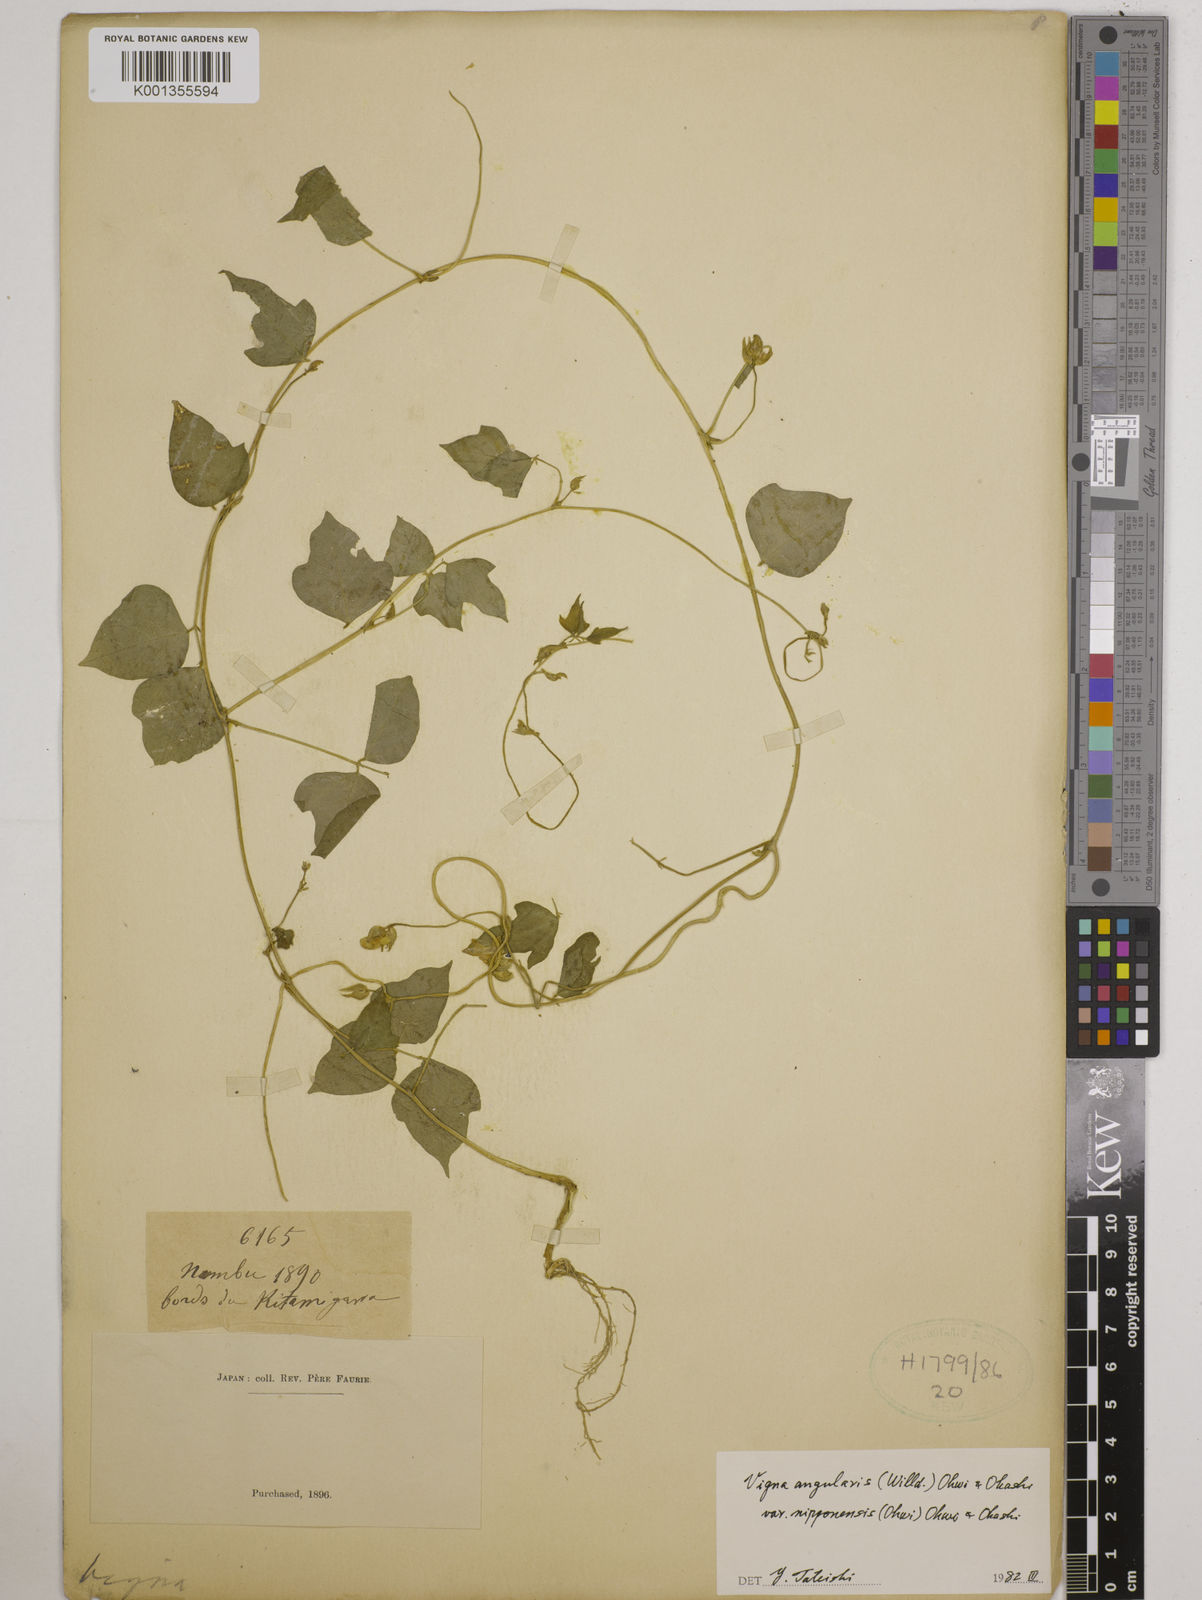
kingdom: Plantae
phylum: Tracheophyta
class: Magnoliopsida
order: Fabales
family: Fabaceae
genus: Vigna
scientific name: Vigna
